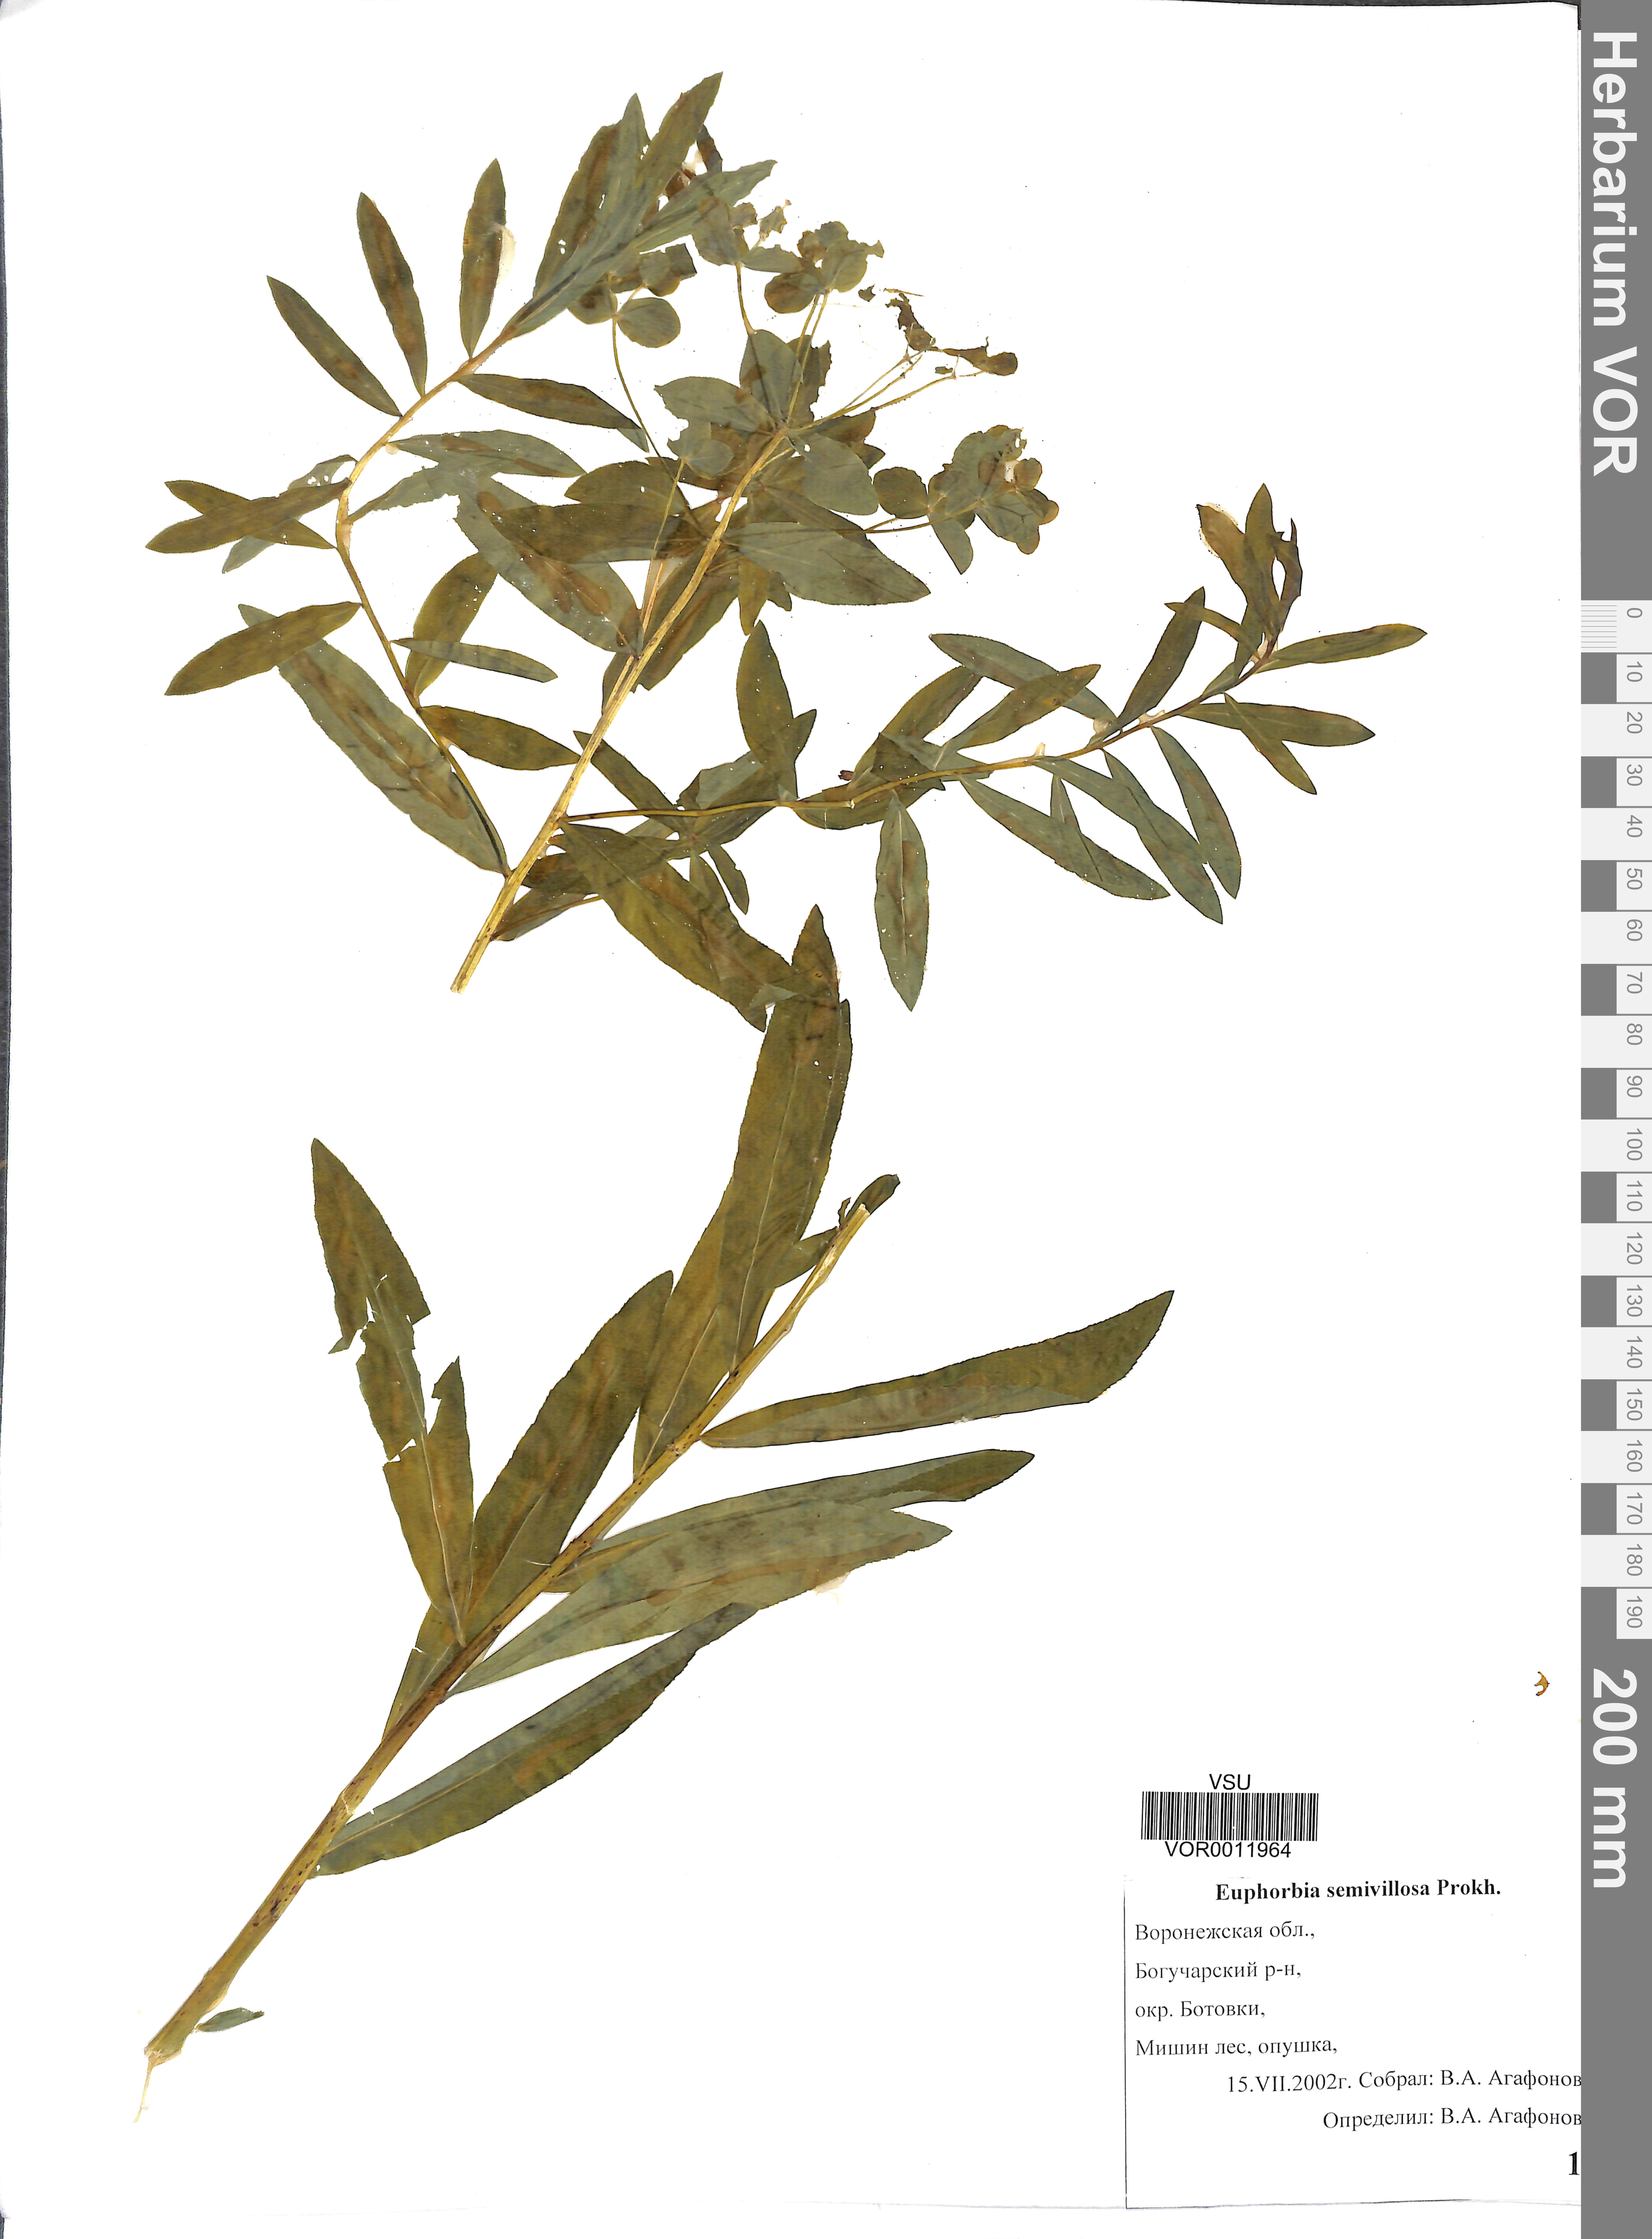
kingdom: Plantae
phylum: Tracheophyta
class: Magnoliopsida
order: Malpighiales
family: Euphorbiaceae
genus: Euphorbia
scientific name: Euphorbia semivillosa
